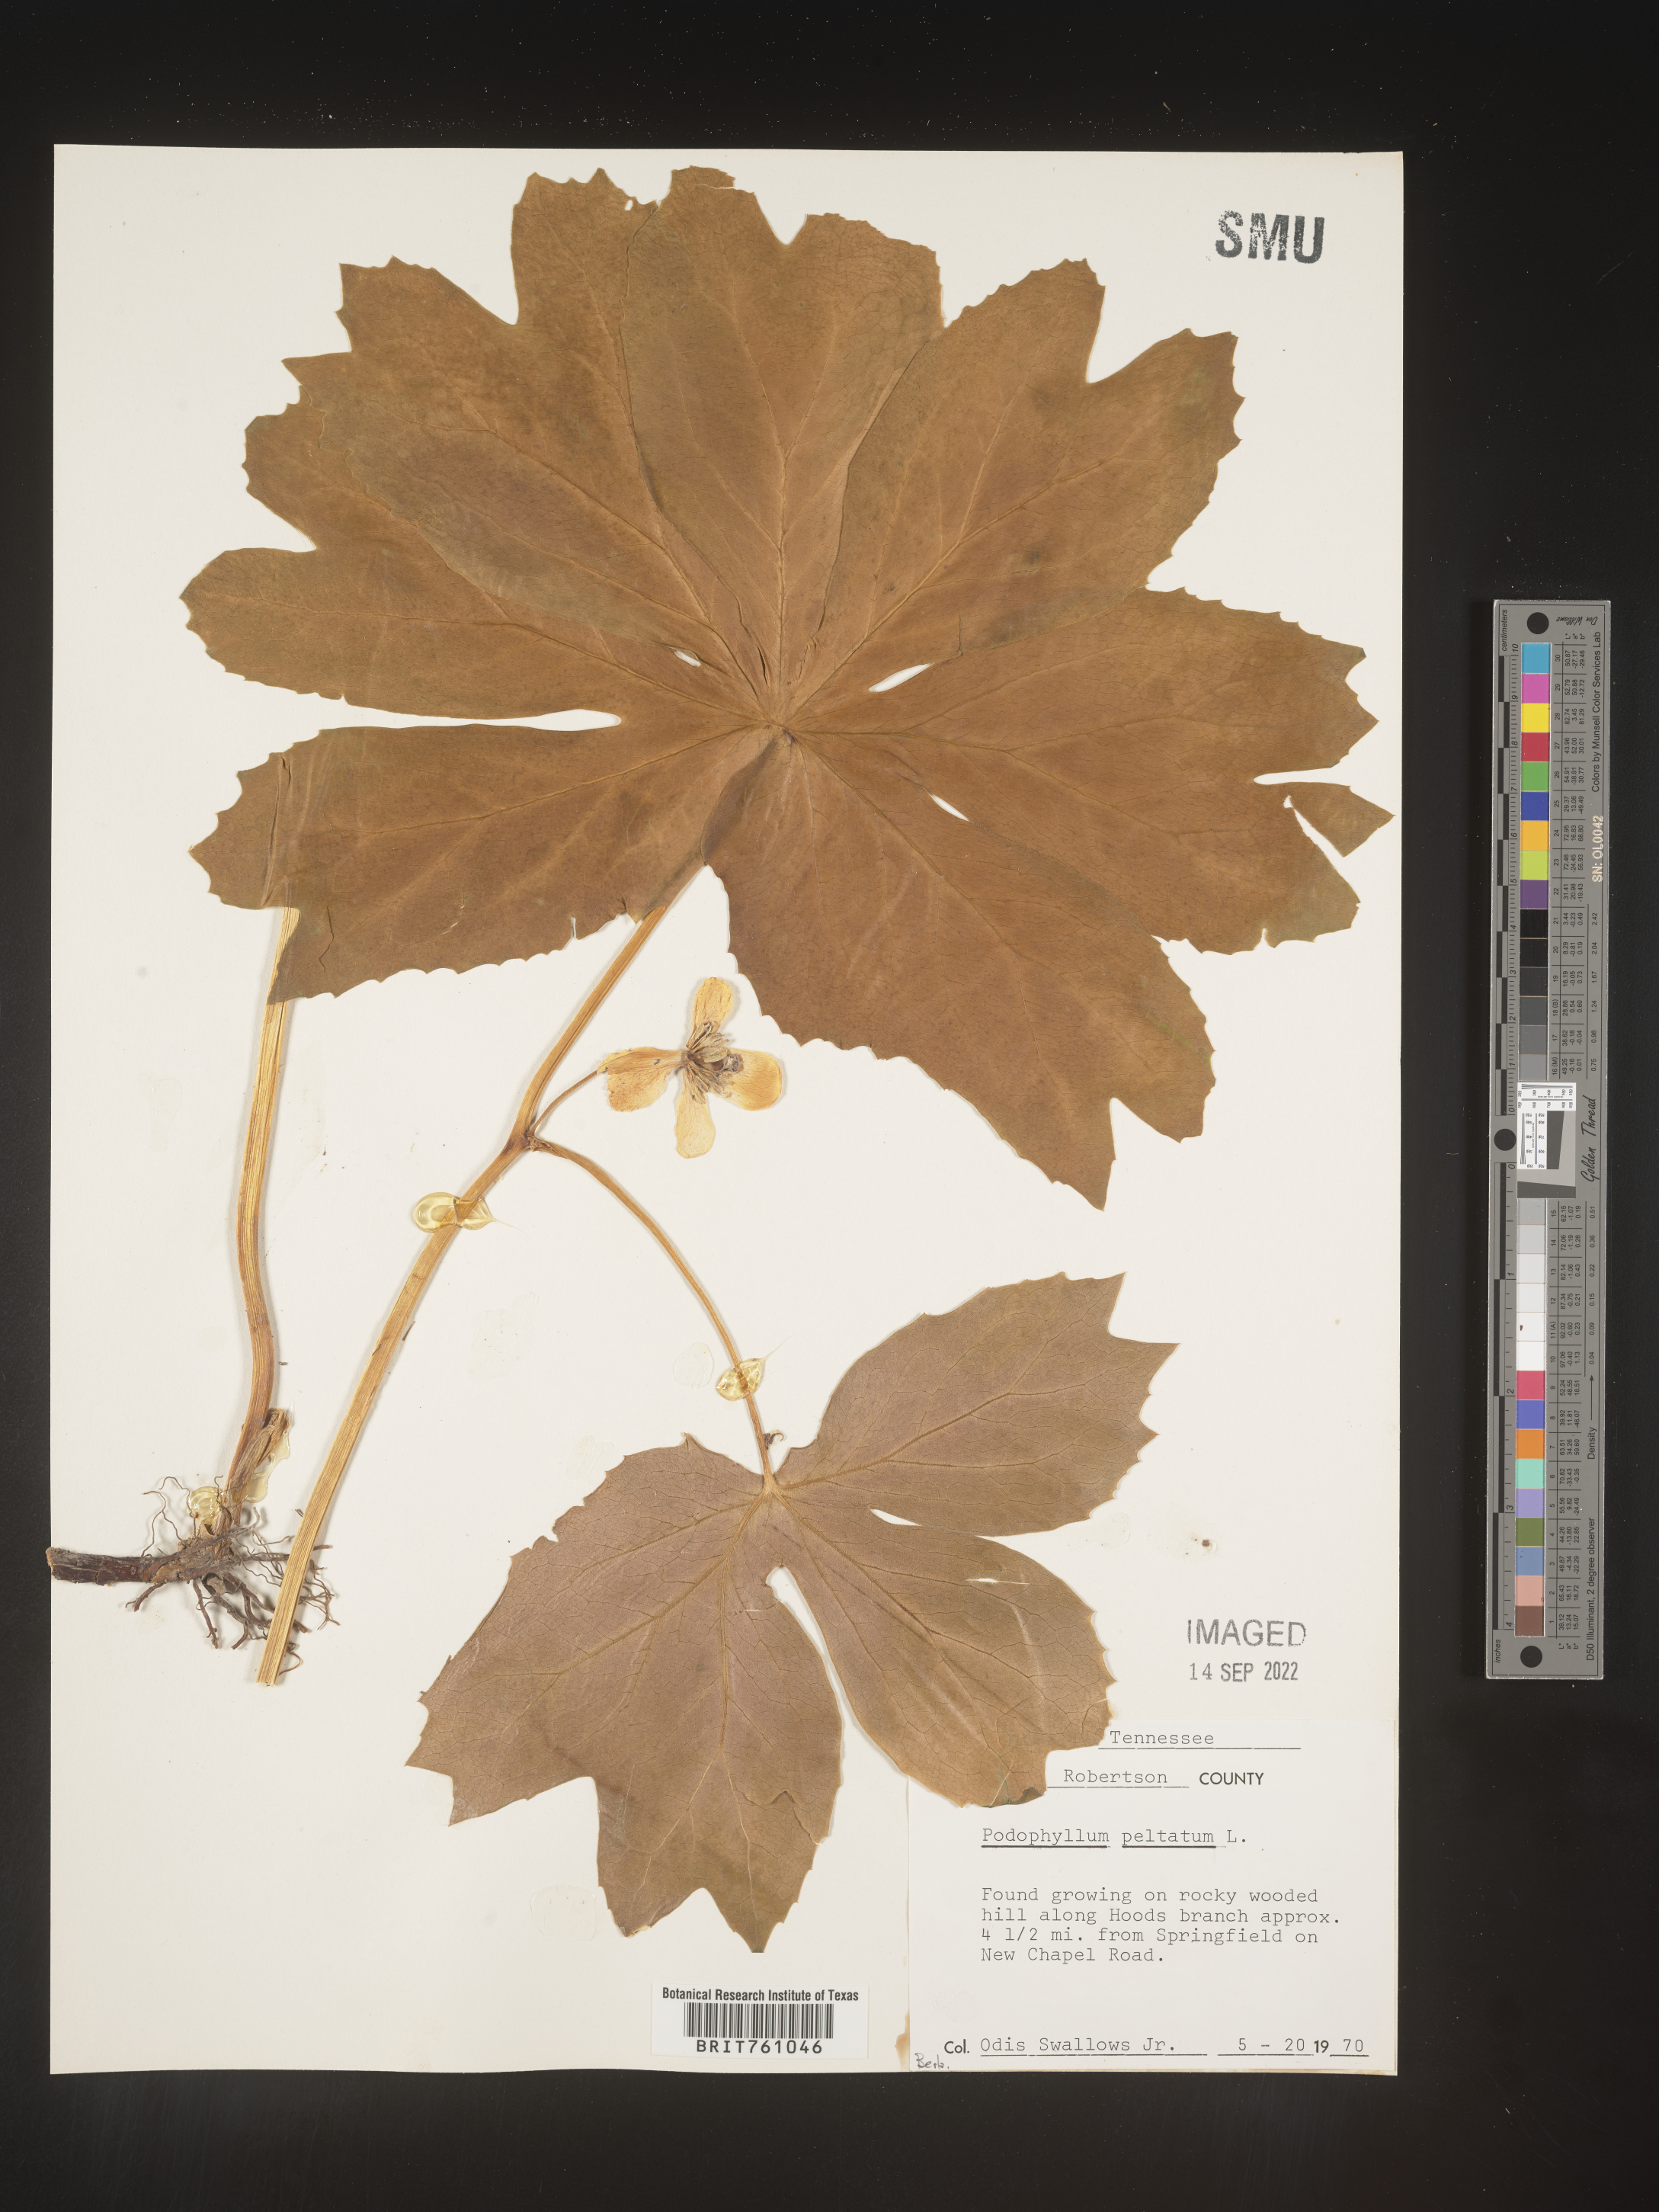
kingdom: Plantae
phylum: Tracheophyta
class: Magnoliopsida
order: Ranunculales
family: Berberidaceae
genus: Podophyllum
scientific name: Podophyllum peltatum
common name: Wild mandrake
